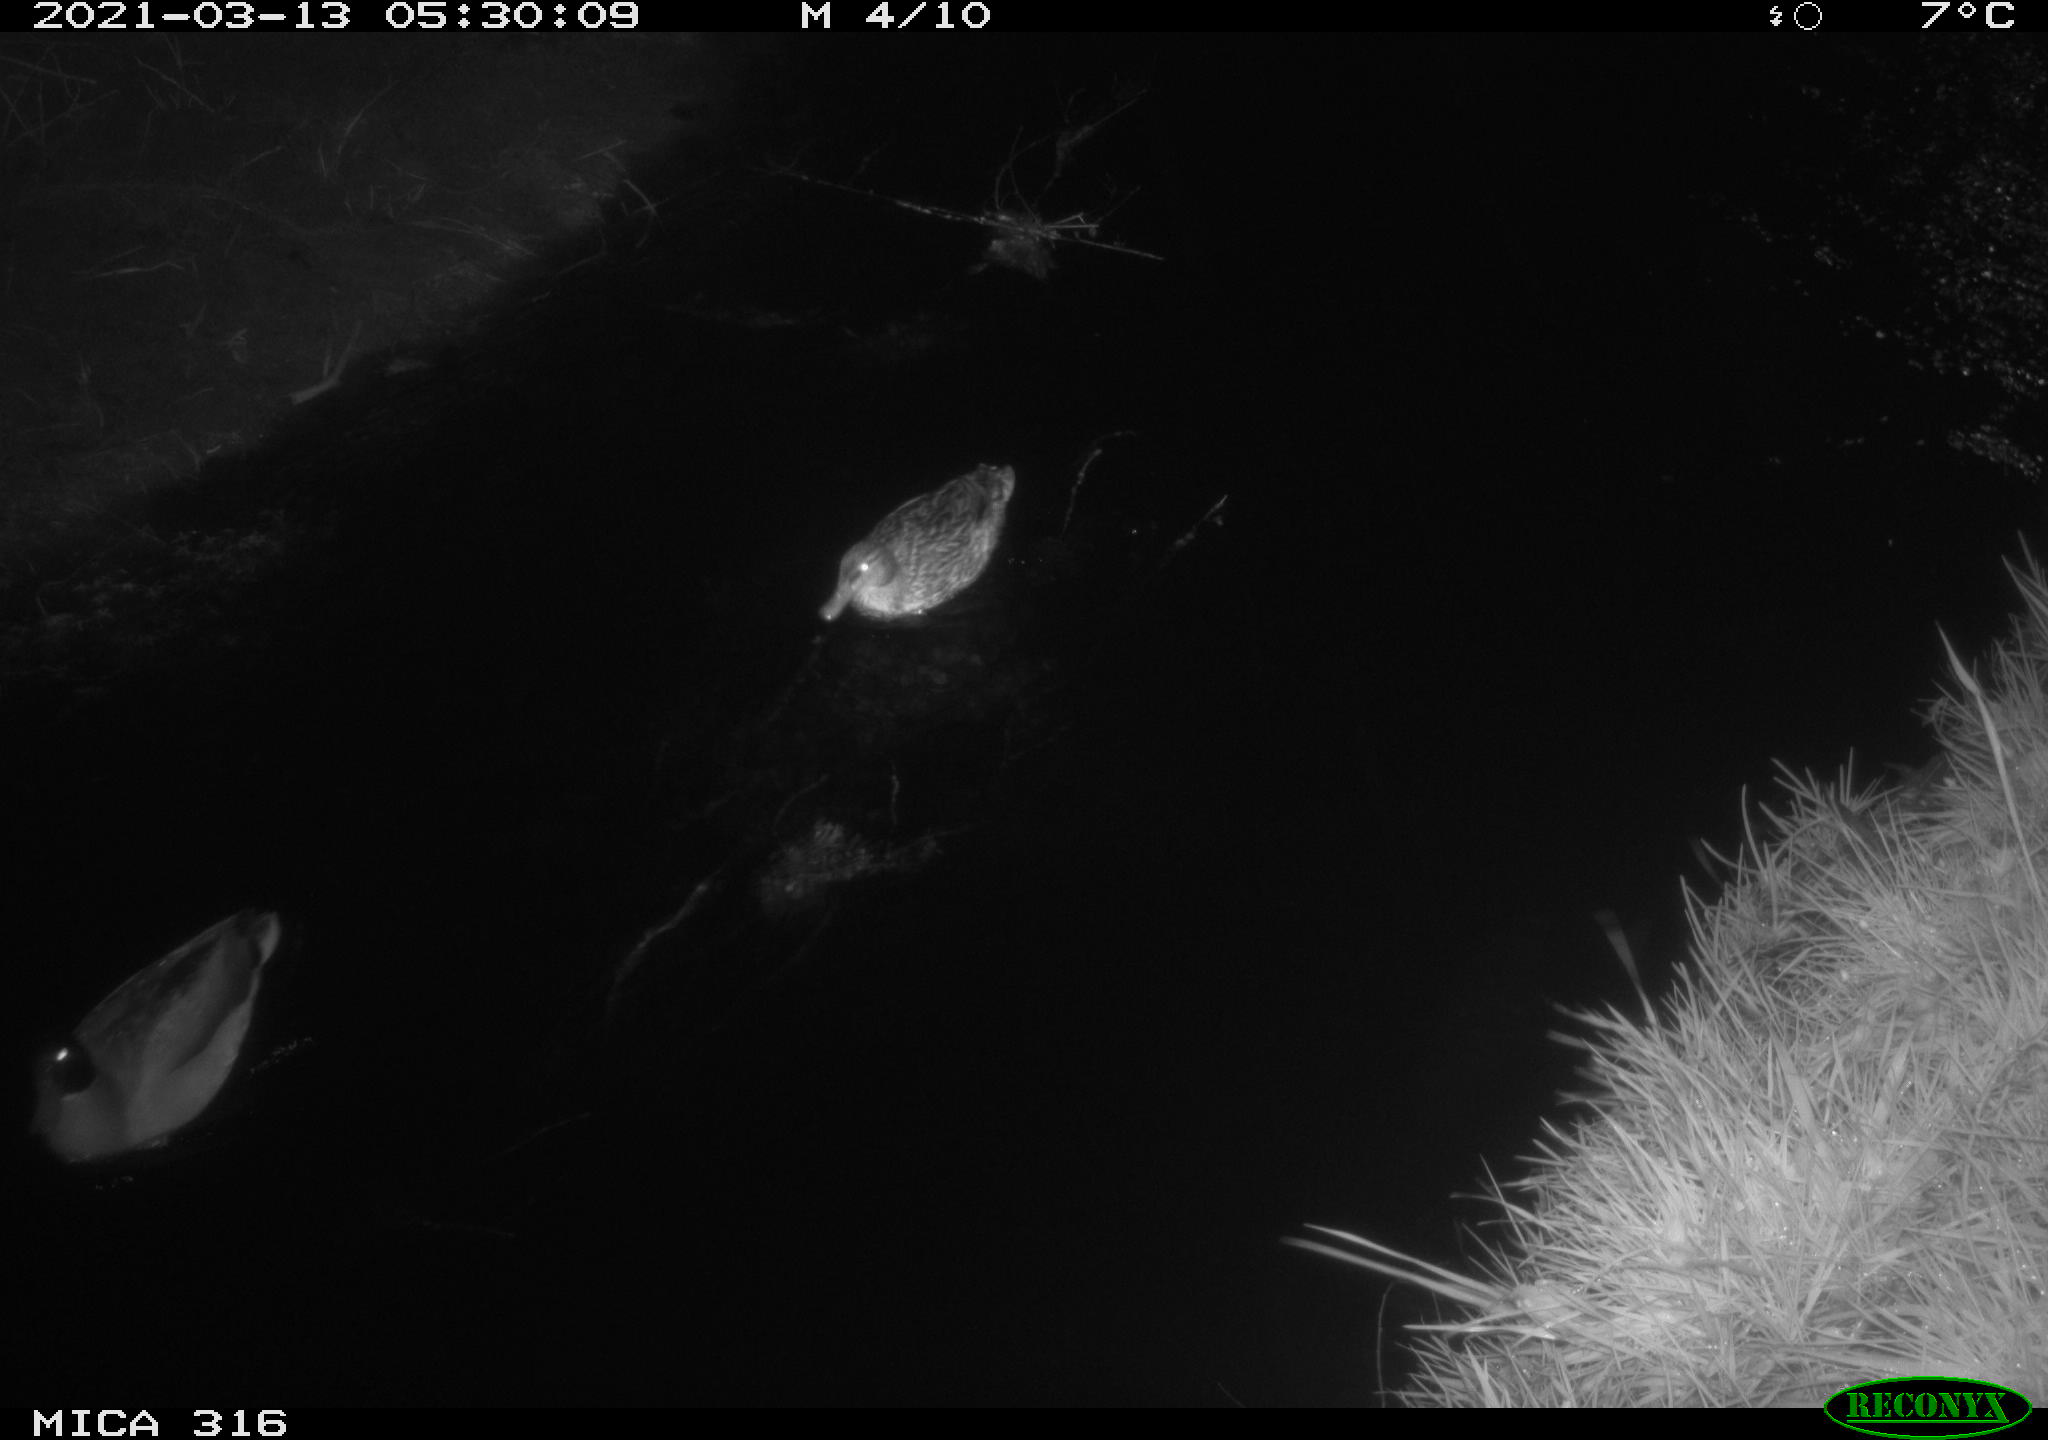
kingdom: Animalia
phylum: Chordata
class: Aves
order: Anseriformes
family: Anatidae
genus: Anas
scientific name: Anas platyrhynchos
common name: Mallard
